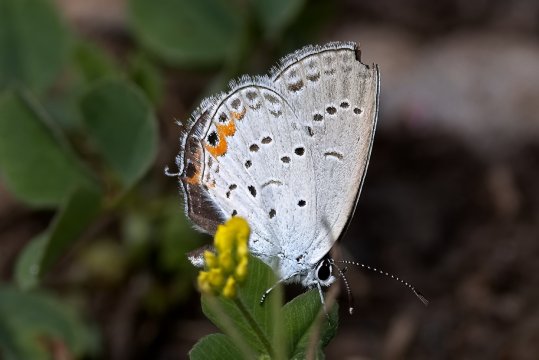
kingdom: Animalia
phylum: Arthropoda
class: Insecta
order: Lepidoptera
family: Lycaenidae
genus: Elkalyce
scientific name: Elkalyce comyntas
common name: Eastern Tailed-Blue
